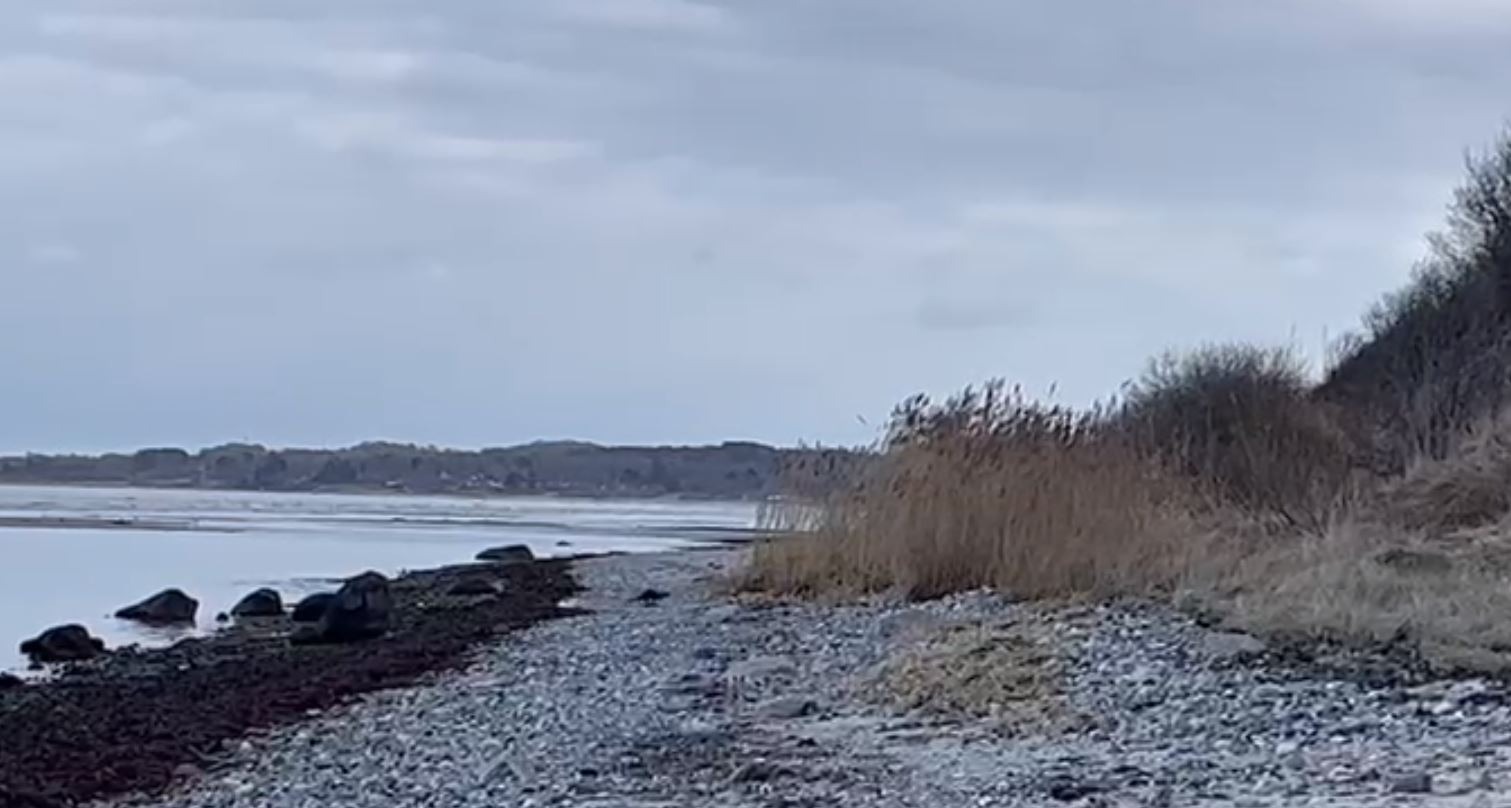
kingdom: Animalia
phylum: Chordata
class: Mammalia
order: Carnivora
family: Mustelidae
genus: Lutra
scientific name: Lutra lutra
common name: Odder
